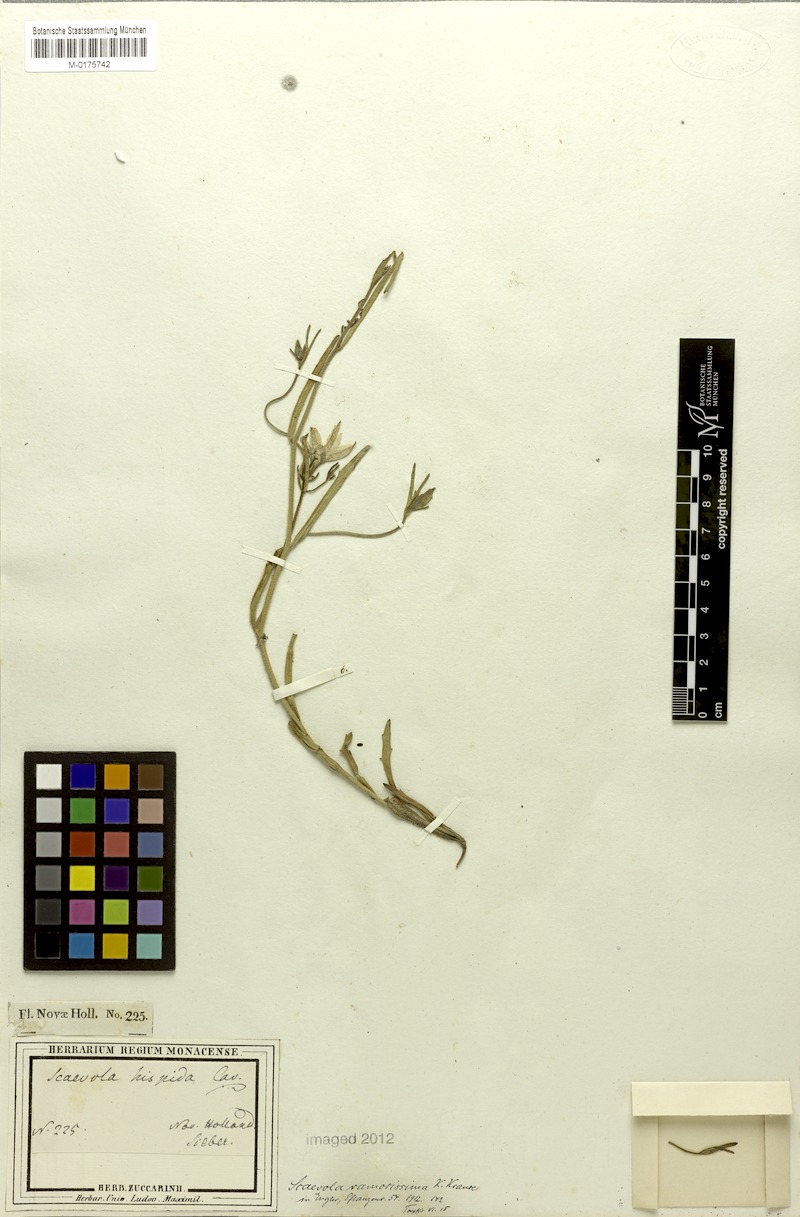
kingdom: Plantae
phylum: Tracheophyta
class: Magnoliopsida
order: Asterales
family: Goodeniaceae
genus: Scaevola
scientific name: Scaevola ramosissima
